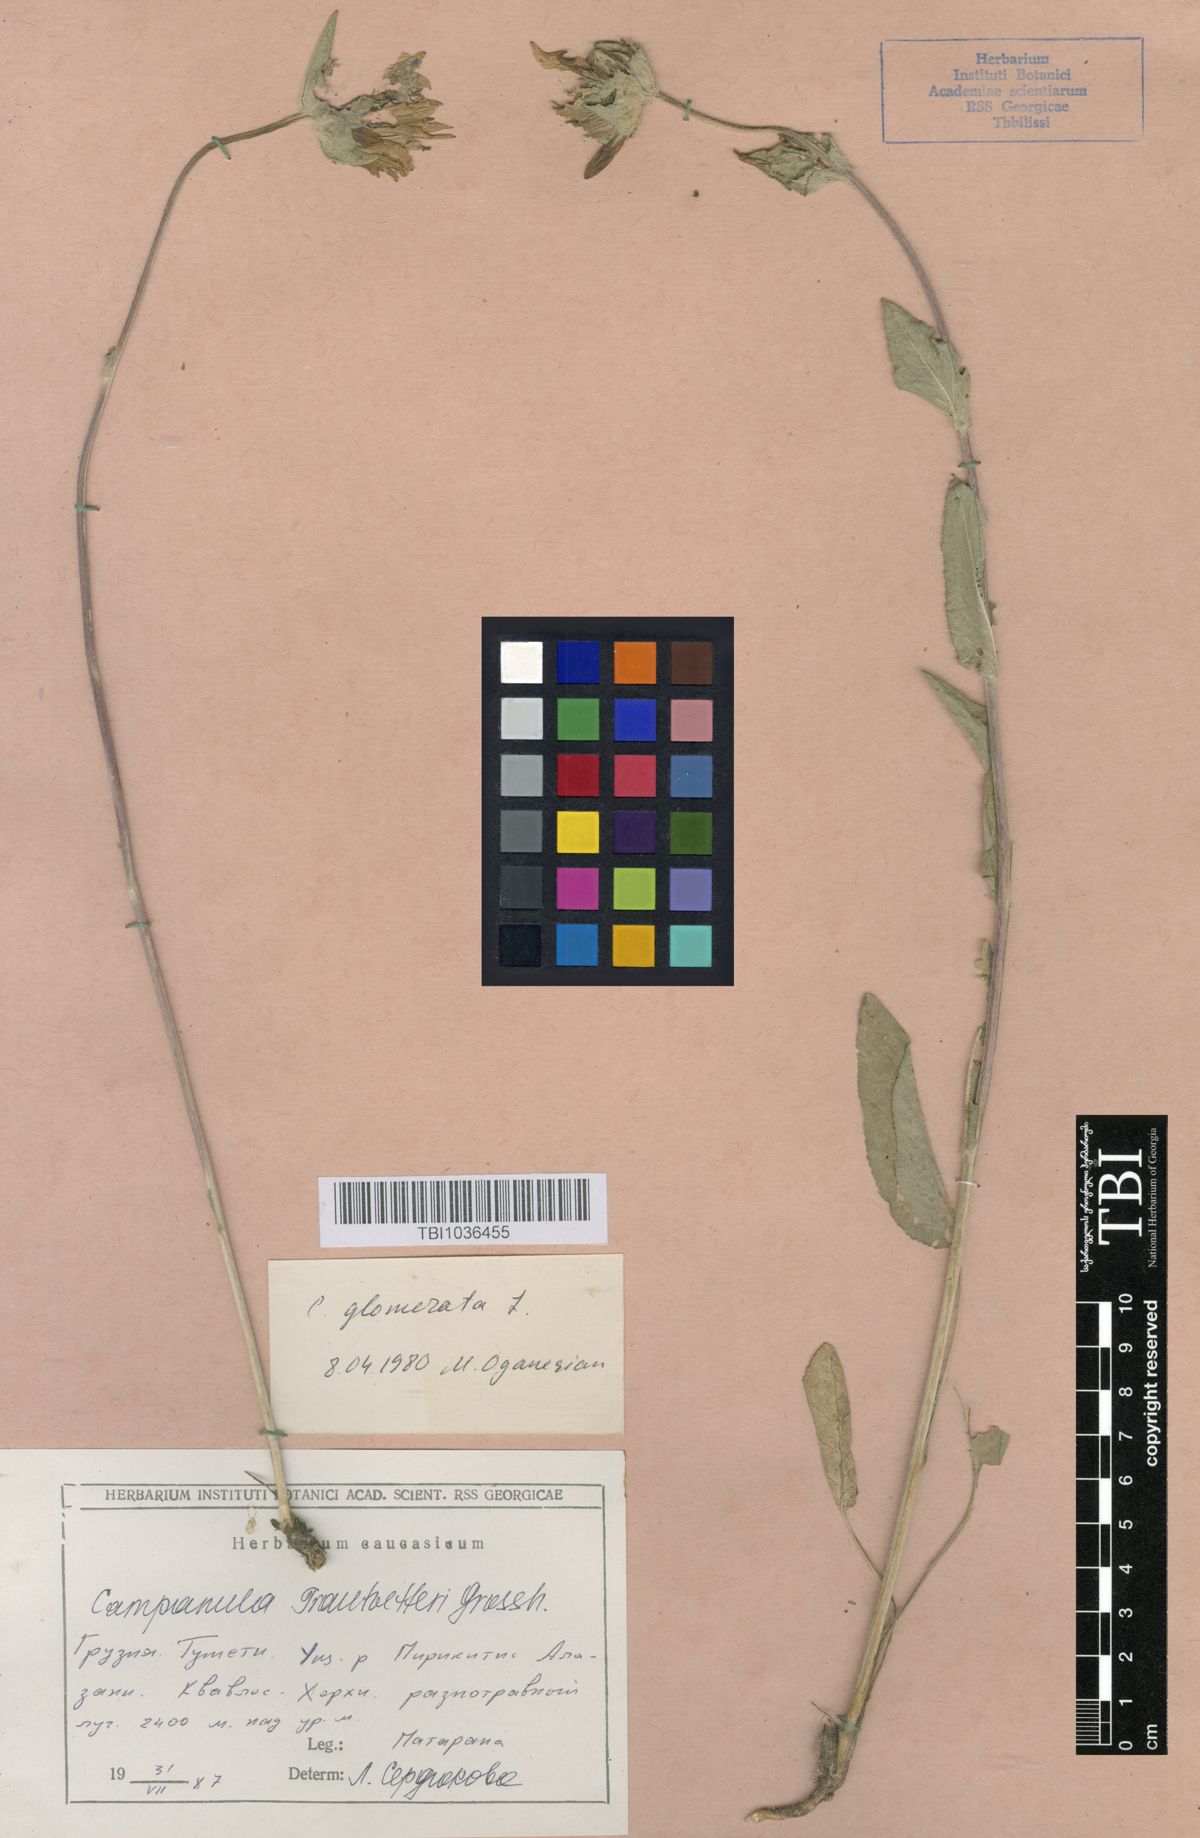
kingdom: Plantae
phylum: Tracheophyta
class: Magnoliopsida
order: Asterales
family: Campanulaceae
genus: Campanula
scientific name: Campanula glomerata
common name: Clustered bellflower
